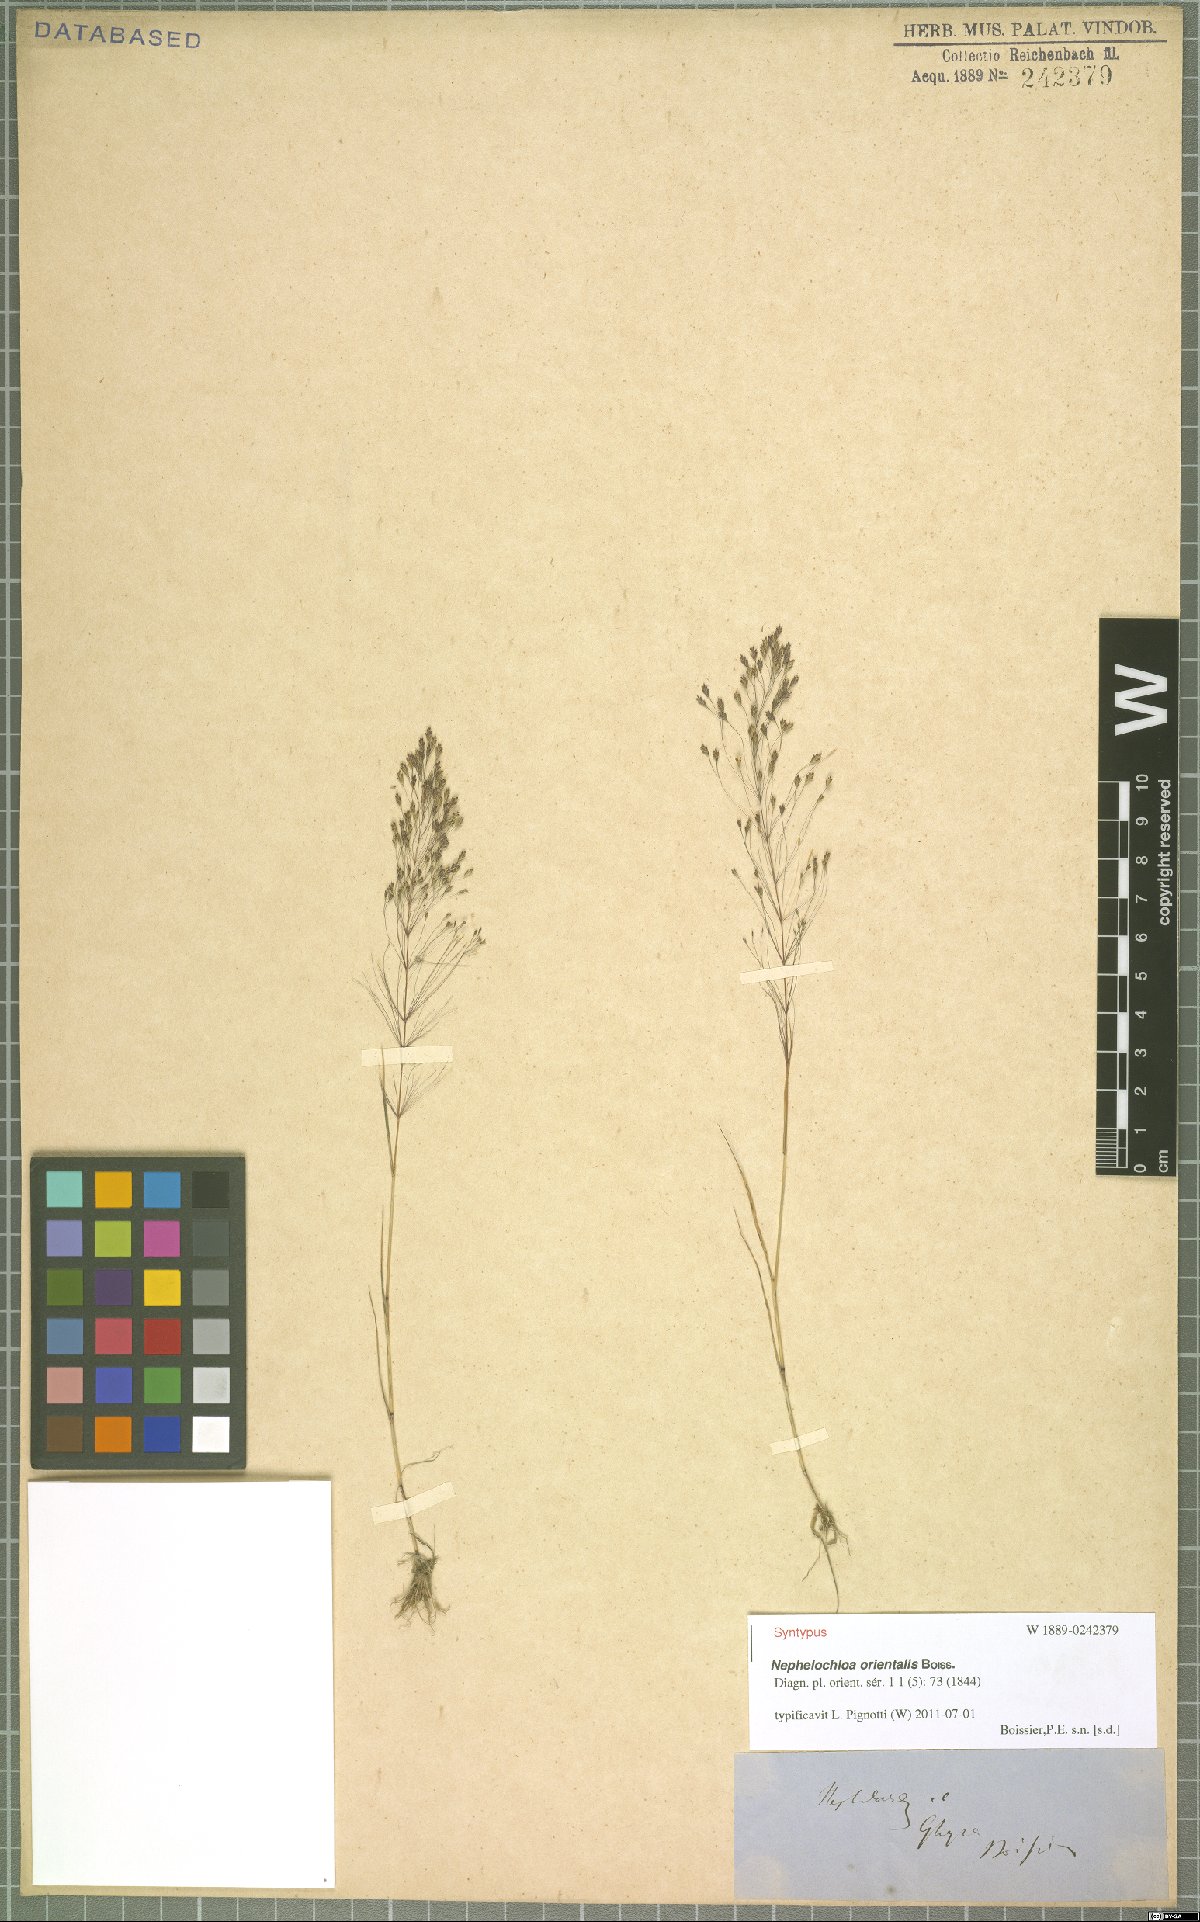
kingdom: Plantae
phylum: Tracheophyta
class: Liliopsida
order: Poales
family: Poaceae
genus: Nephelochloa
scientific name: Nephelochloa orientalis
